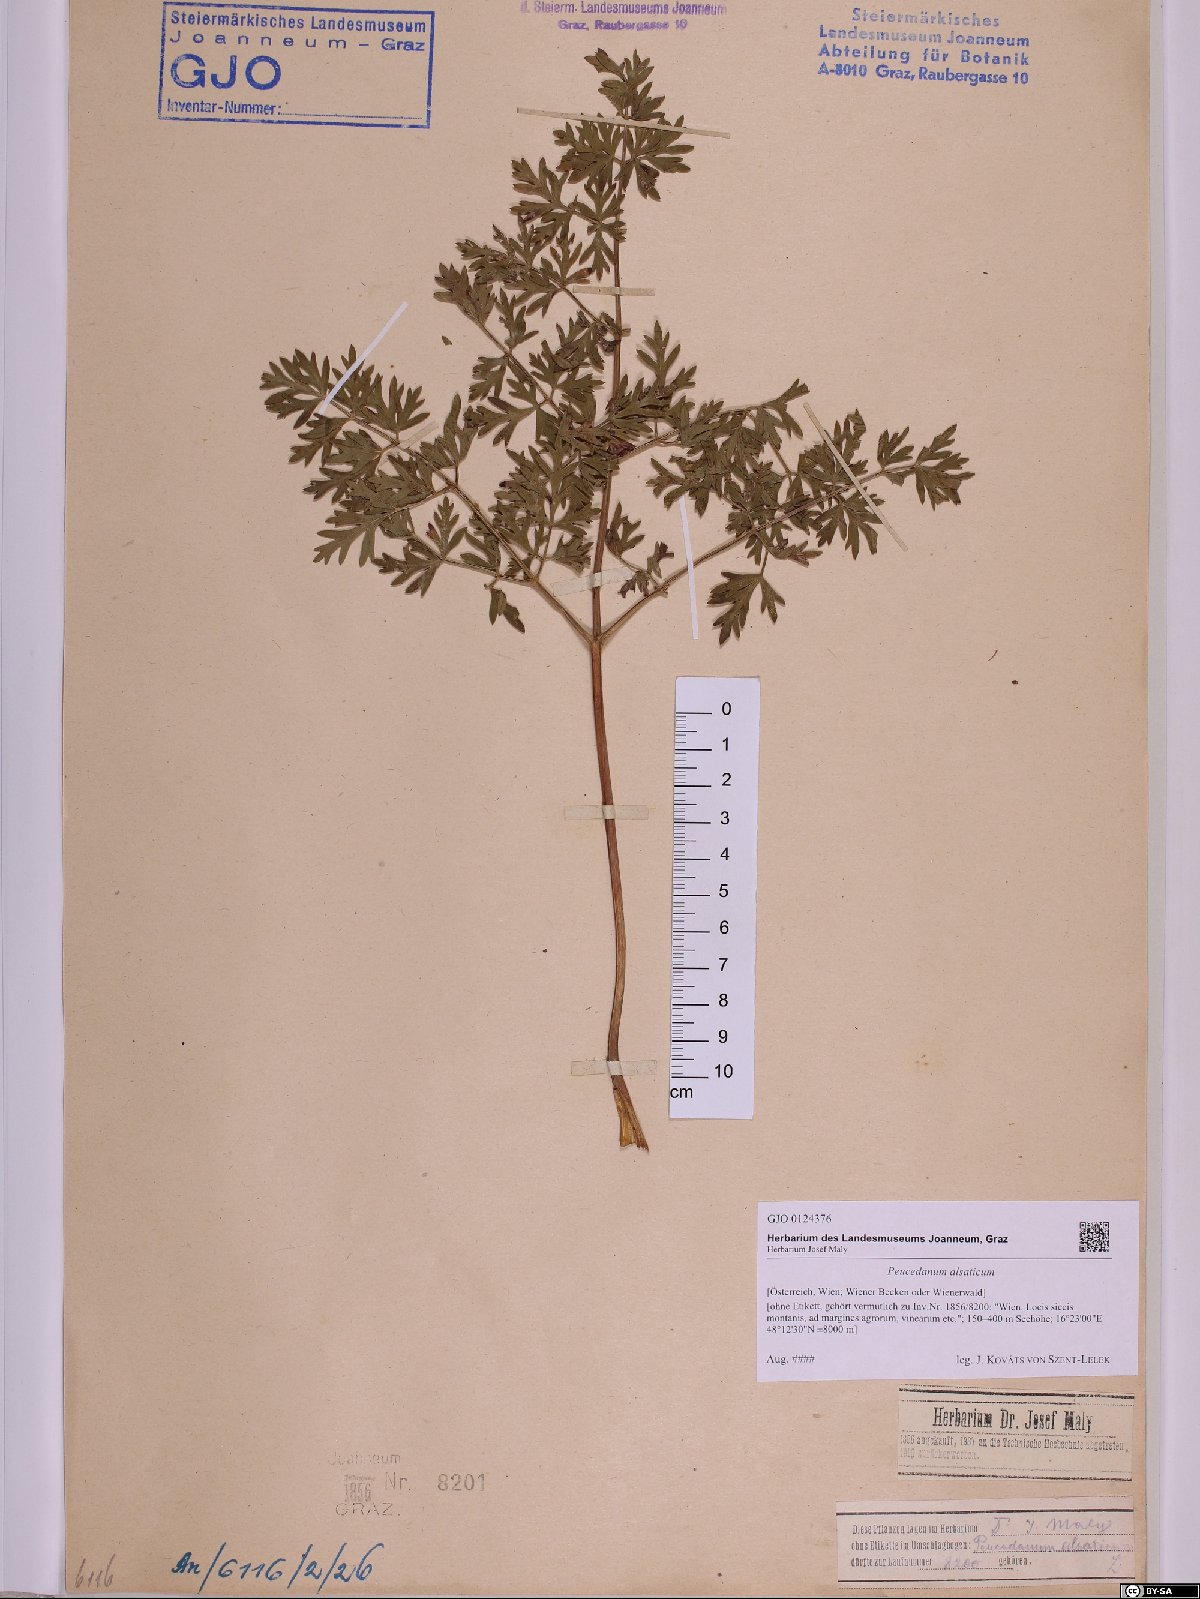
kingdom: Plantae
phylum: Tracheophyta
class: Magnoliopsida
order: Apiales
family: Apiaceae
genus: Xanthoselinum
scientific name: Xanthoselinum alsaticum
